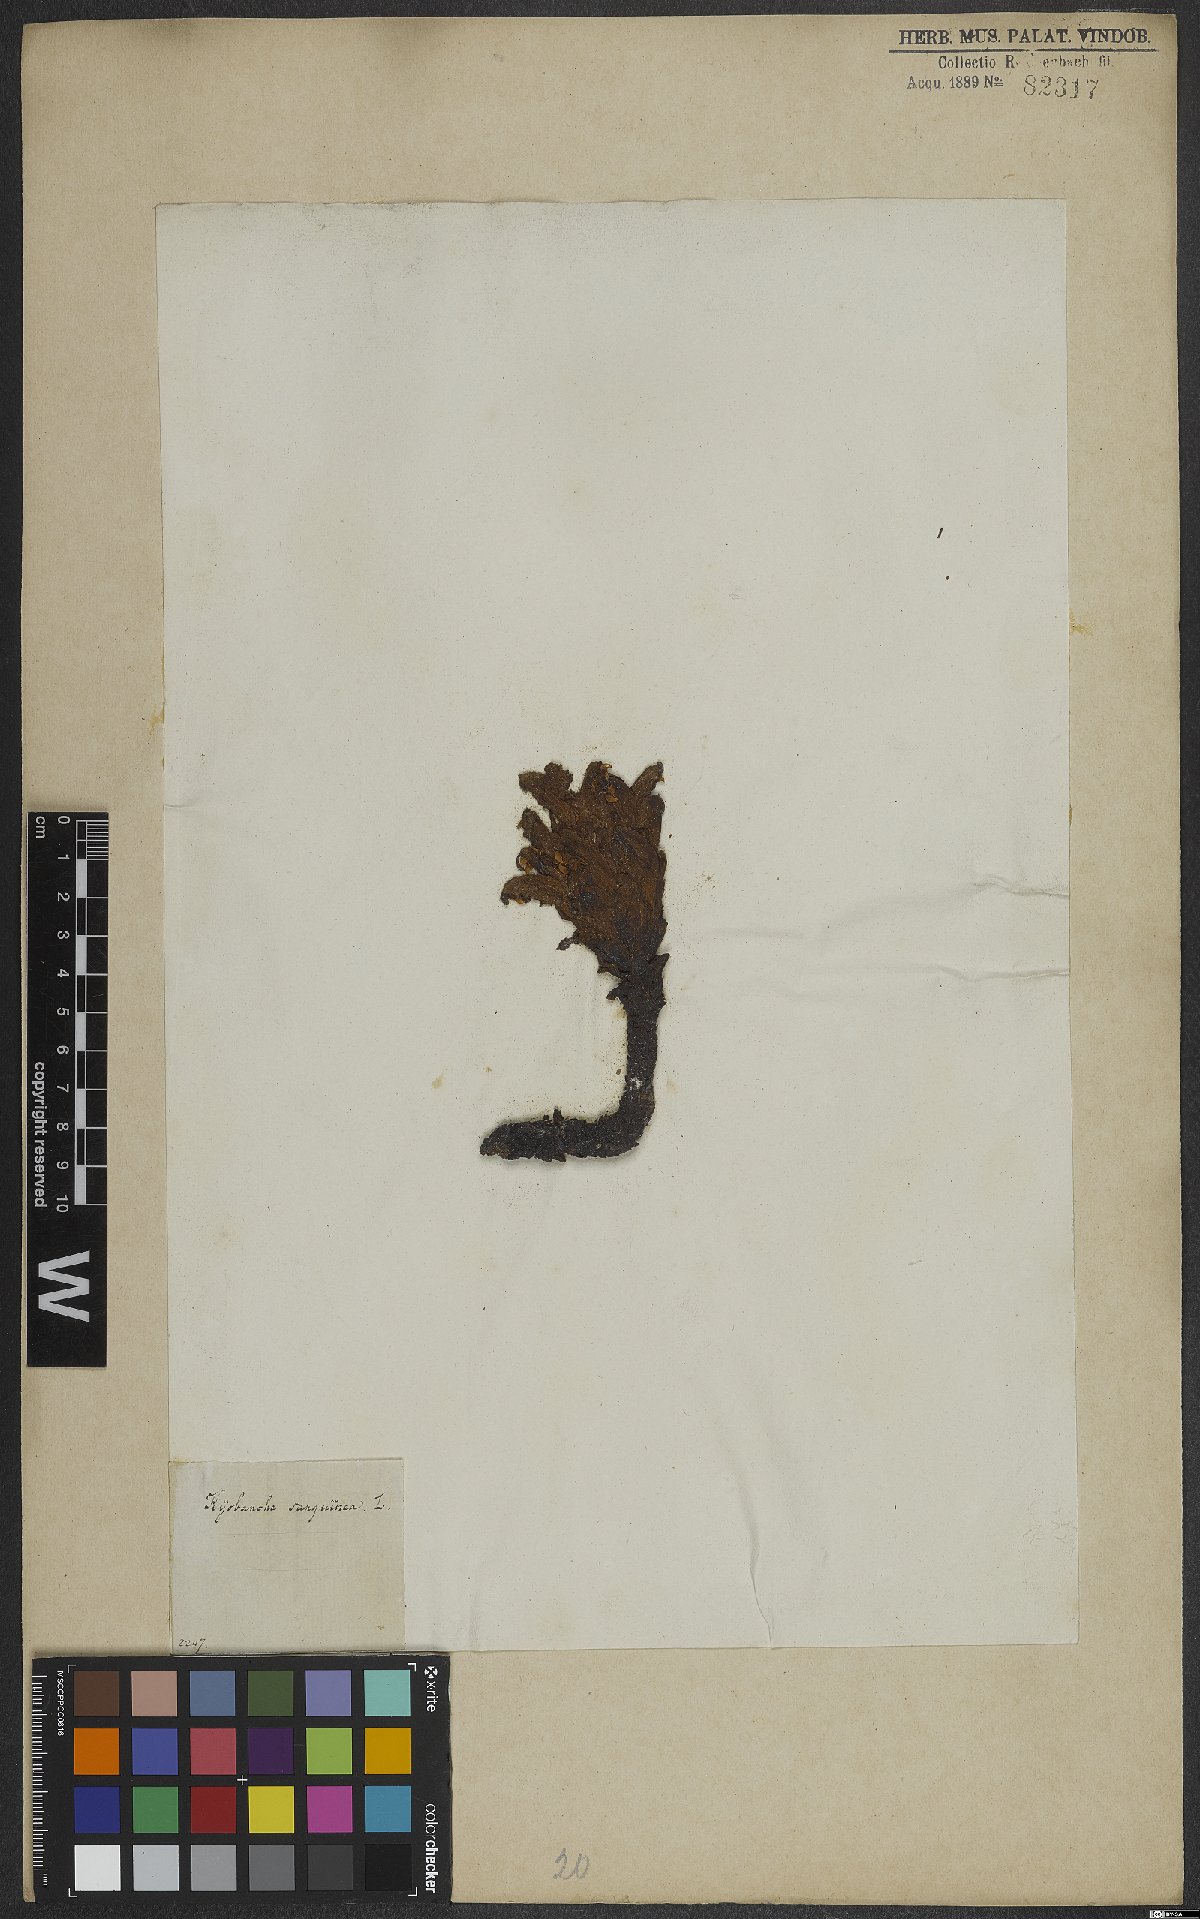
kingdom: Plantae
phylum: Tracheophyta
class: Magnoliopsida
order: Lamiales
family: Orobanchaceae
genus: Hyobanche
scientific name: Hyobanche sanguinea
